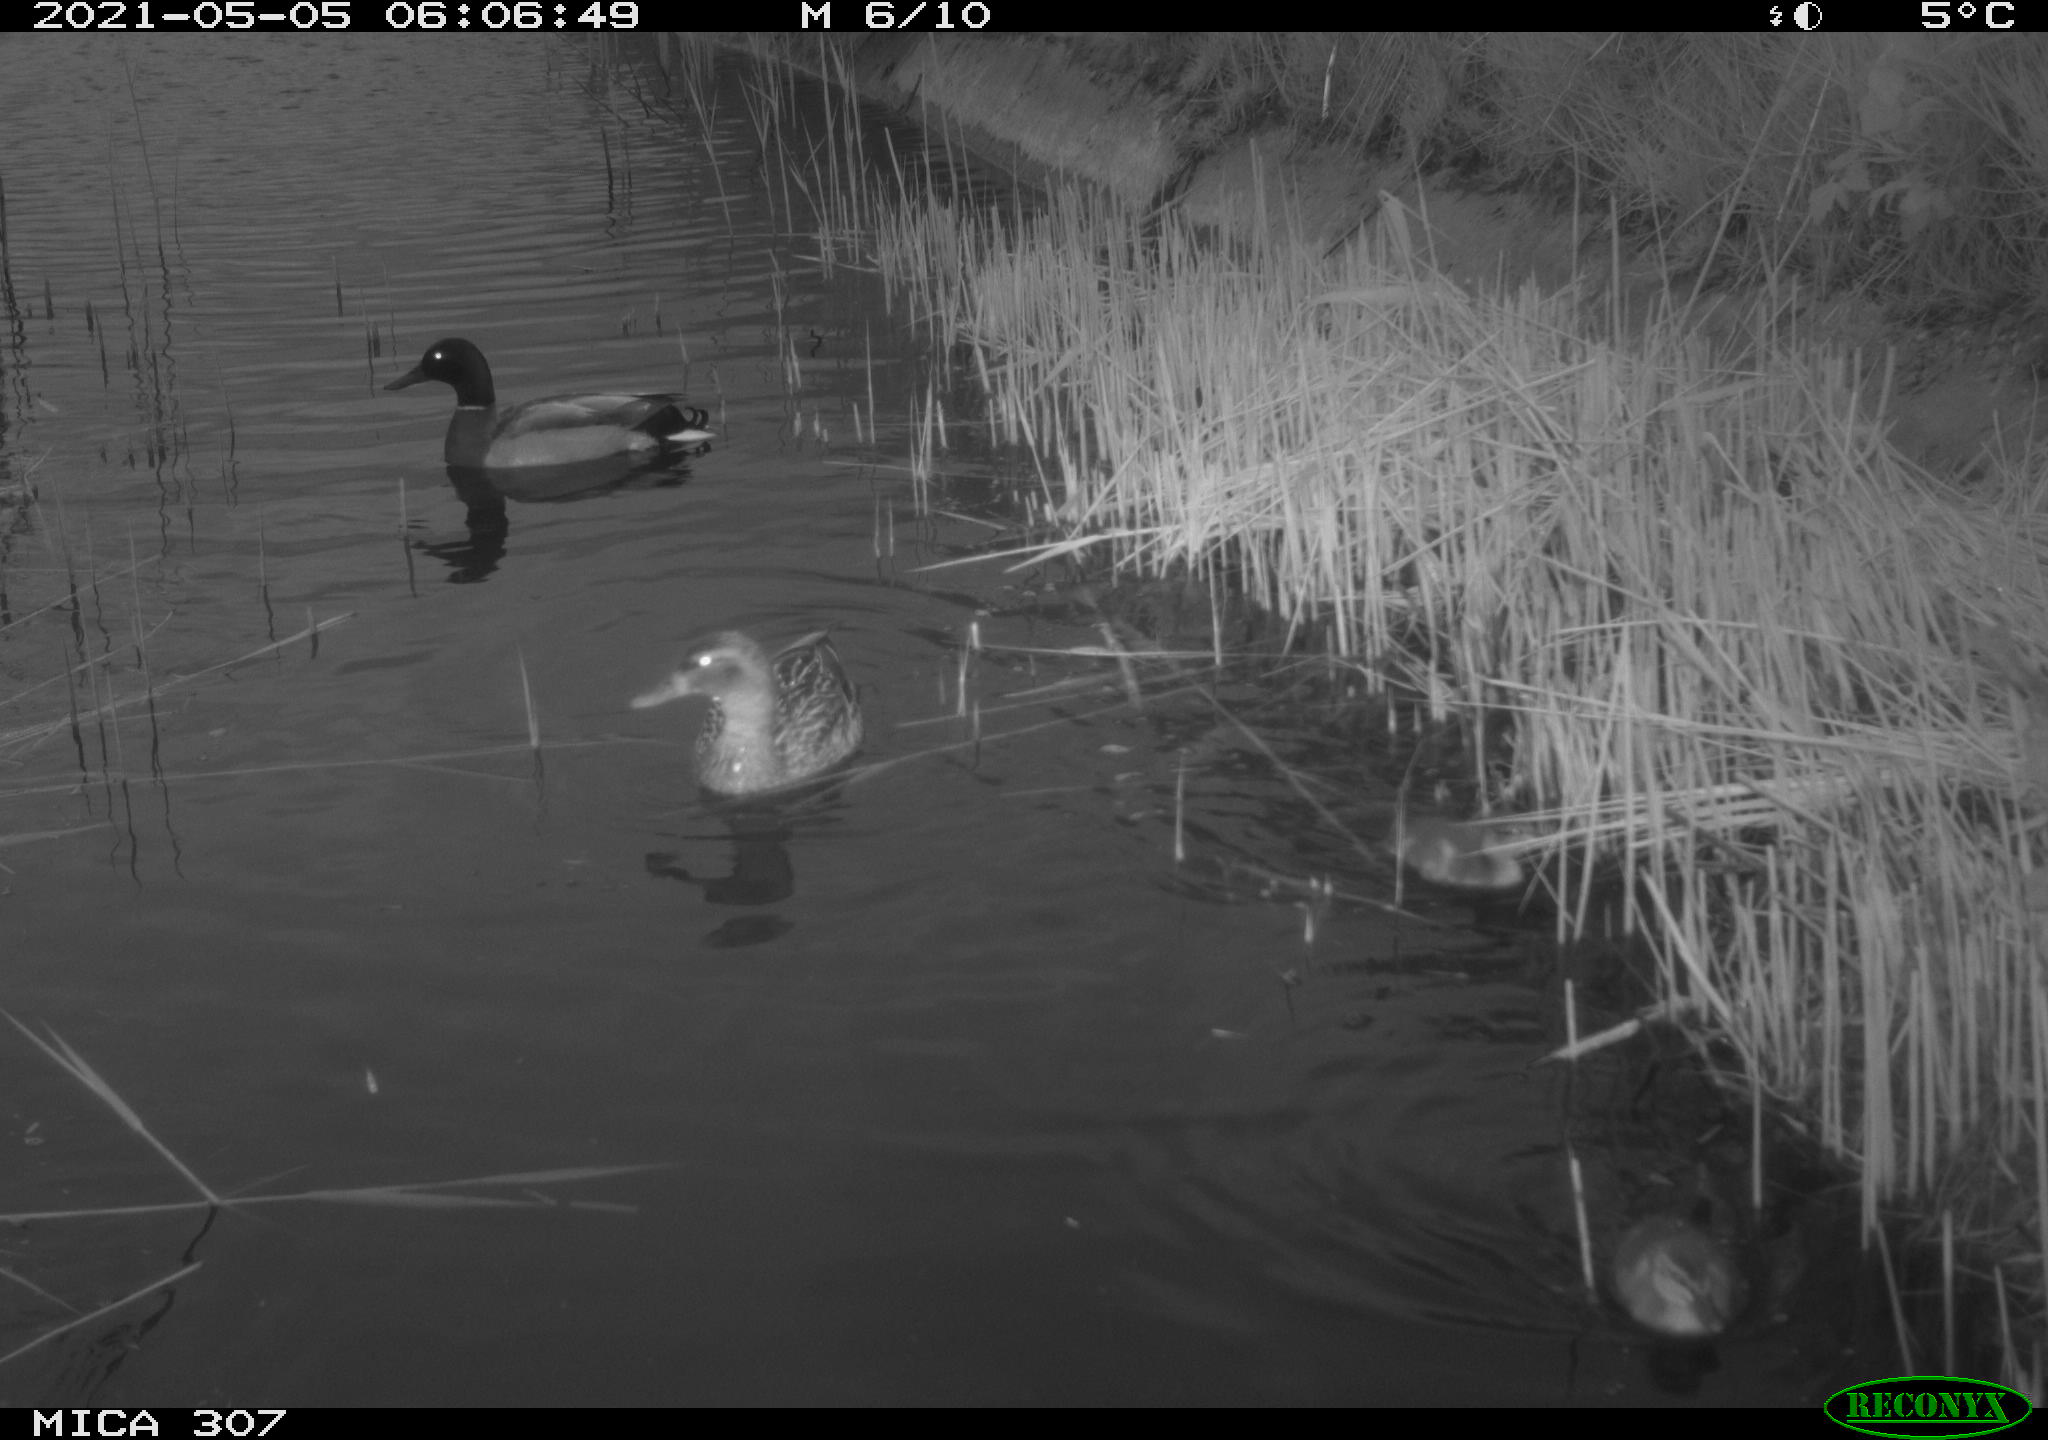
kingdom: Animalia
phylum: Chordata
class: Aves
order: Anseriformes
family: Anatidae
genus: Anas
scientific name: Anas platyrhynchos
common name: Mallard
